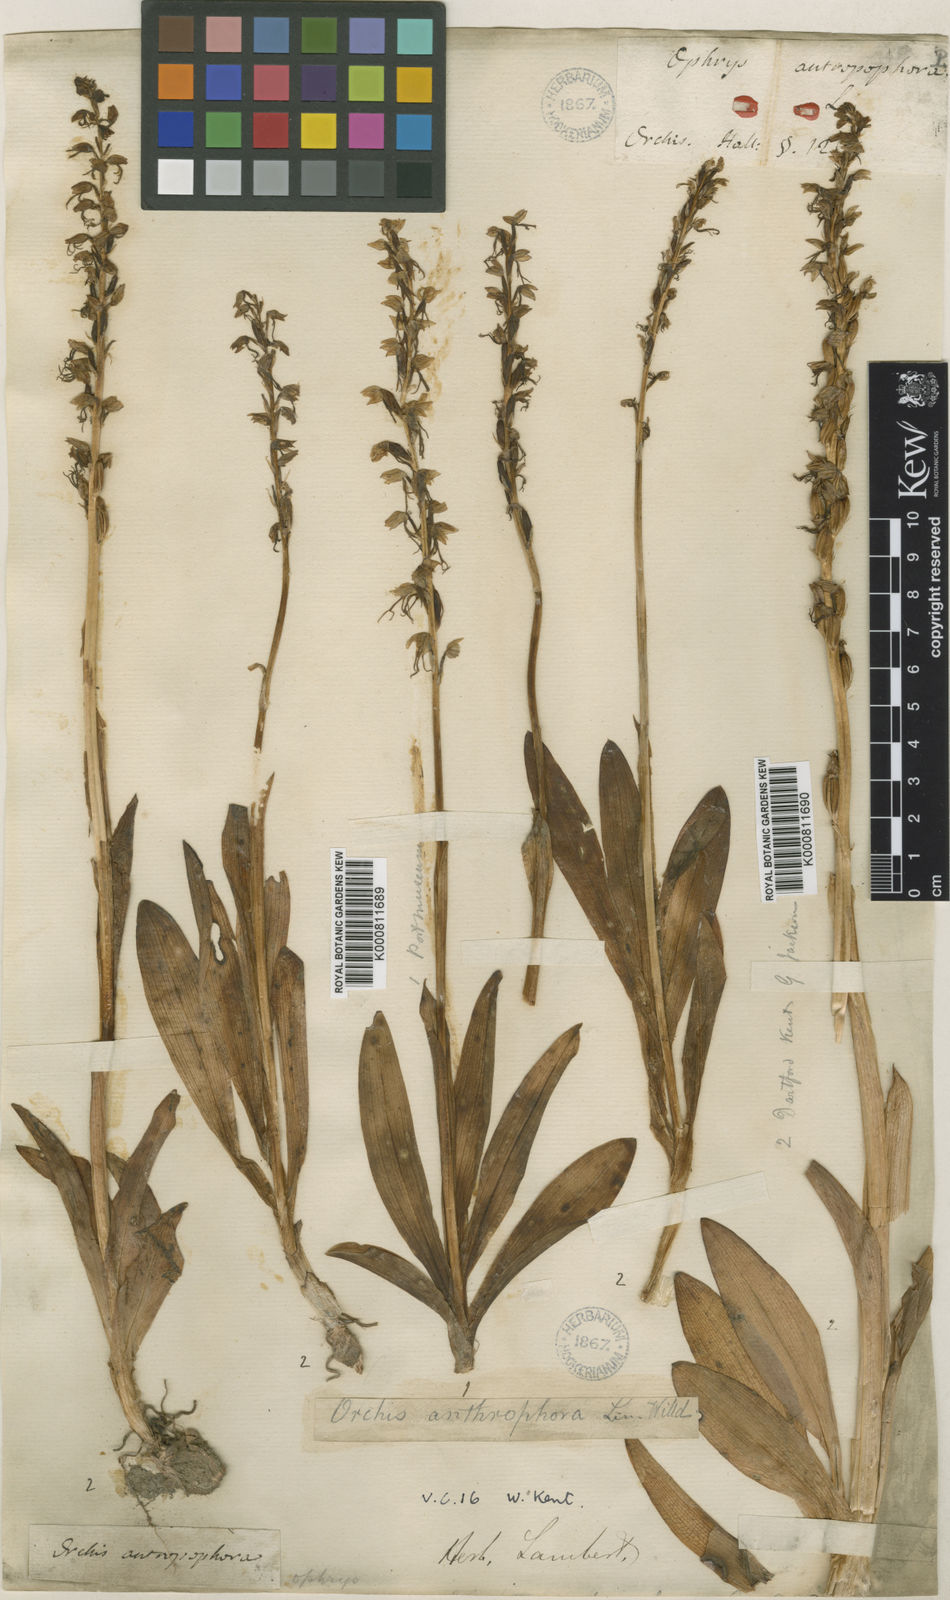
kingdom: Plantae
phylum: Tracheophyta
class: Liliopsida
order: Asparagales
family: Orchidaceae
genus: Orchis
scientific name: Orchis
